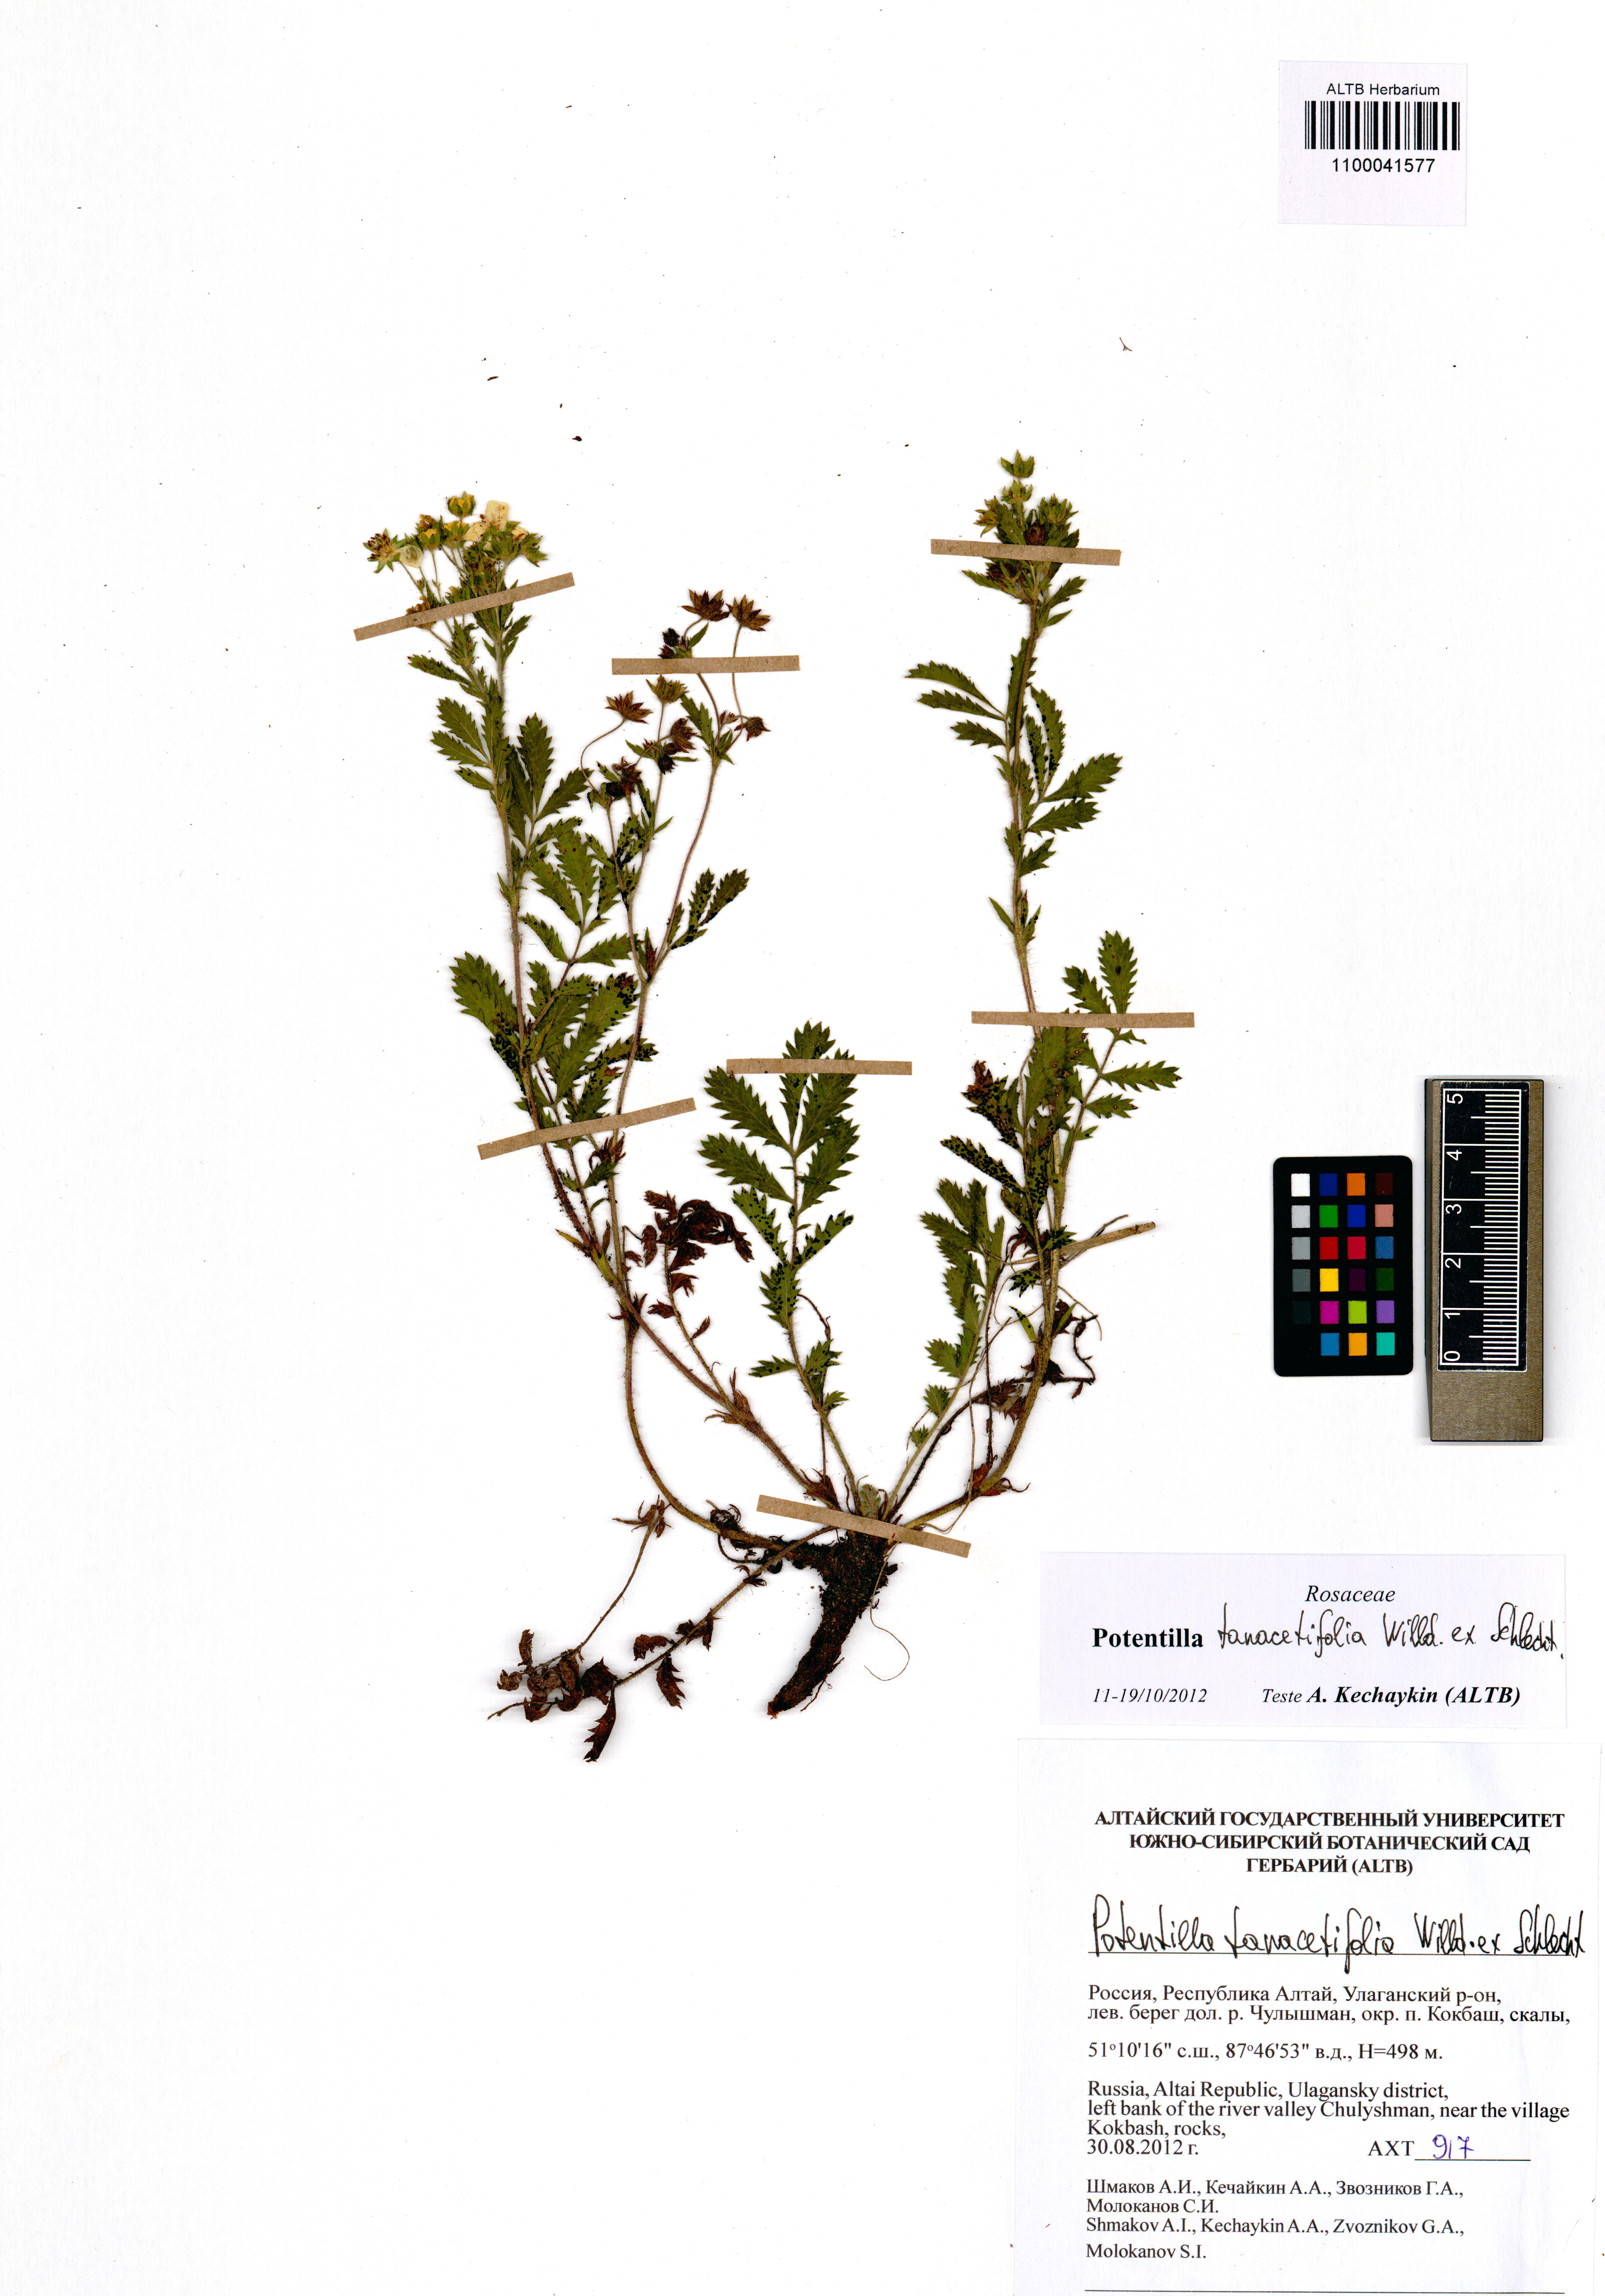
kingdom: Plantae
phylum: Tracheophyta
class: Magnoliopsida
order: Rosales
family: Rosaceae
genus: Potentilla
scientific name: Potentilla tanacetifolia
